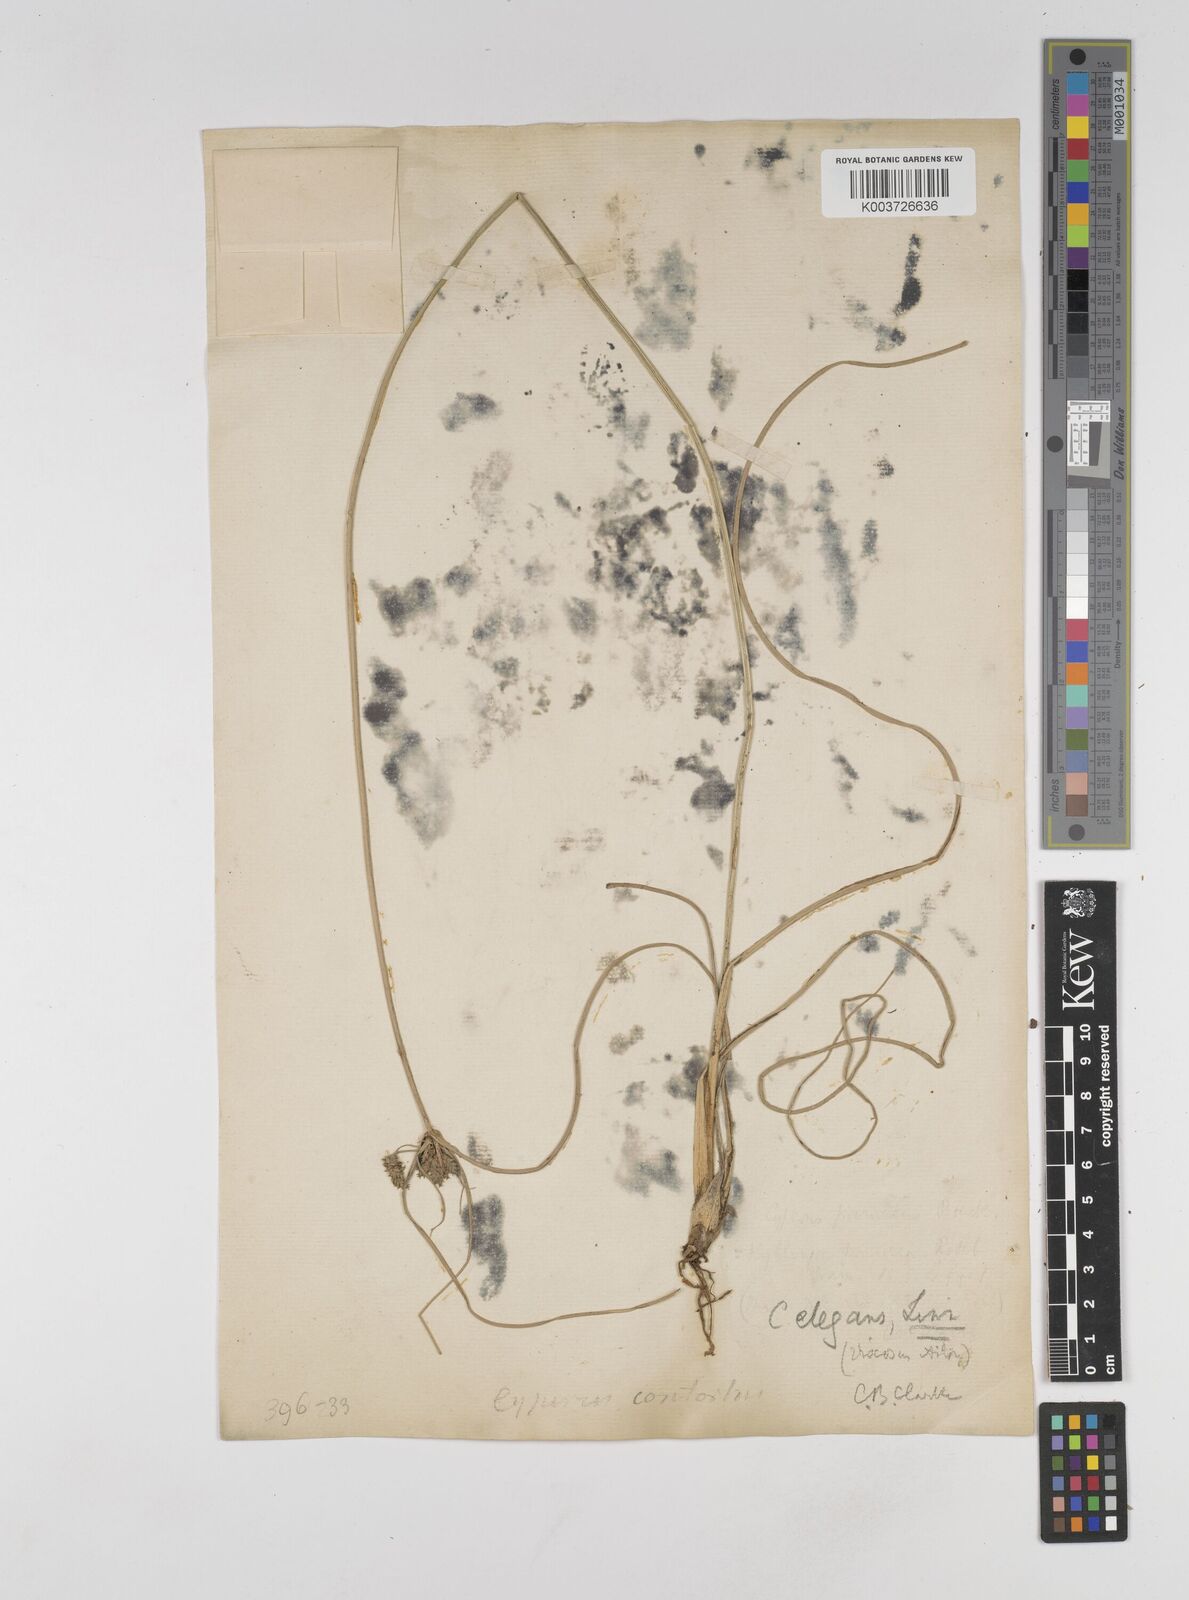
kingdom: Plantae
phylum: Tracheophyta
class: Liliopsida
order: Poales
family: Cyperaceae
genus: Cyperus
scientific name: Cyperus elegans
